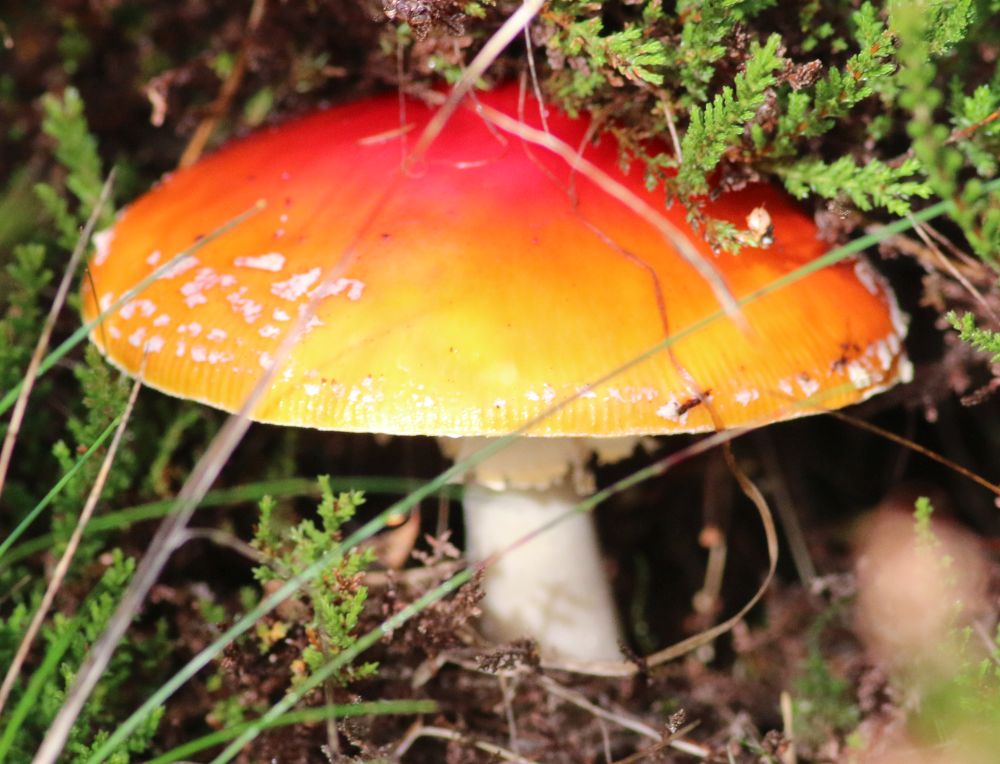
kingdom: Fungi
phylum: Basidiomycota
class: Agaricomycetes
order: Agaricales
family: Amanitaceae
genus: Amanita
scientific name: Amanita muscaria
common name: rød fluesvamp
